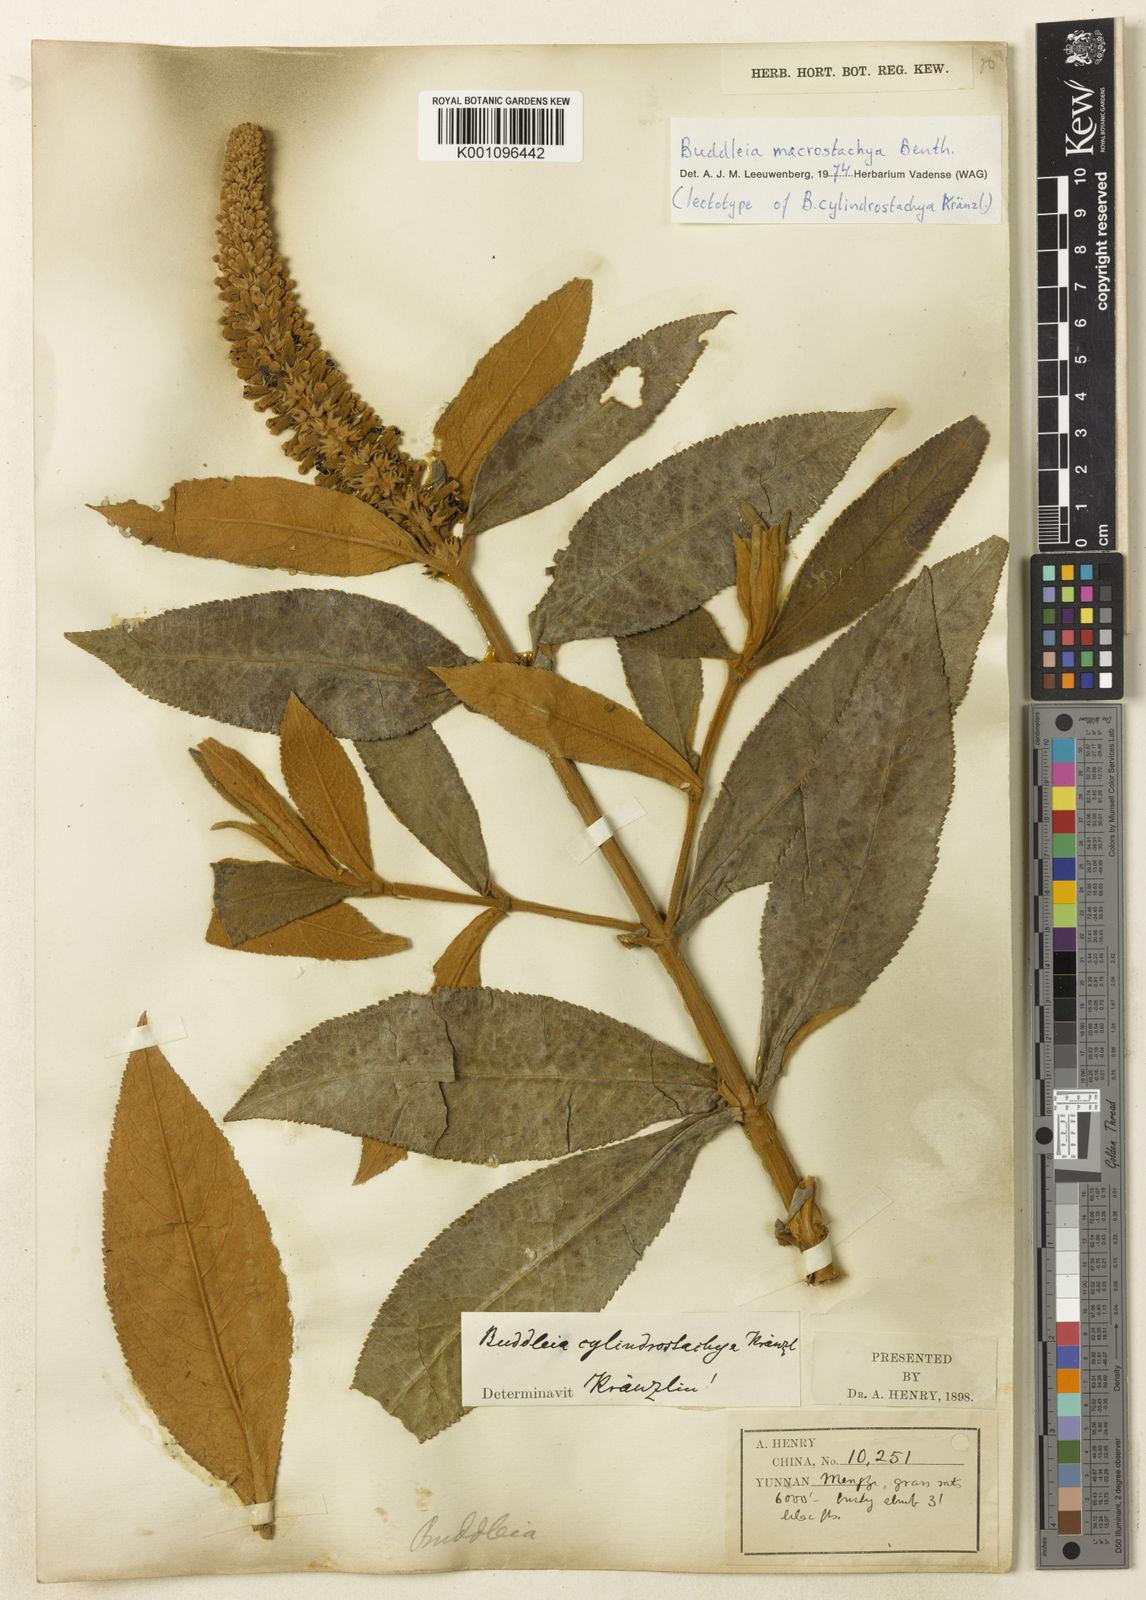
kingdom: Plantae
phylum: Tracheophyta
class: Magnoliopsida
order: Lamiales
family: Scrophulariaceae
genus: Buddleja
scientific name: Buddleja macrostachya
